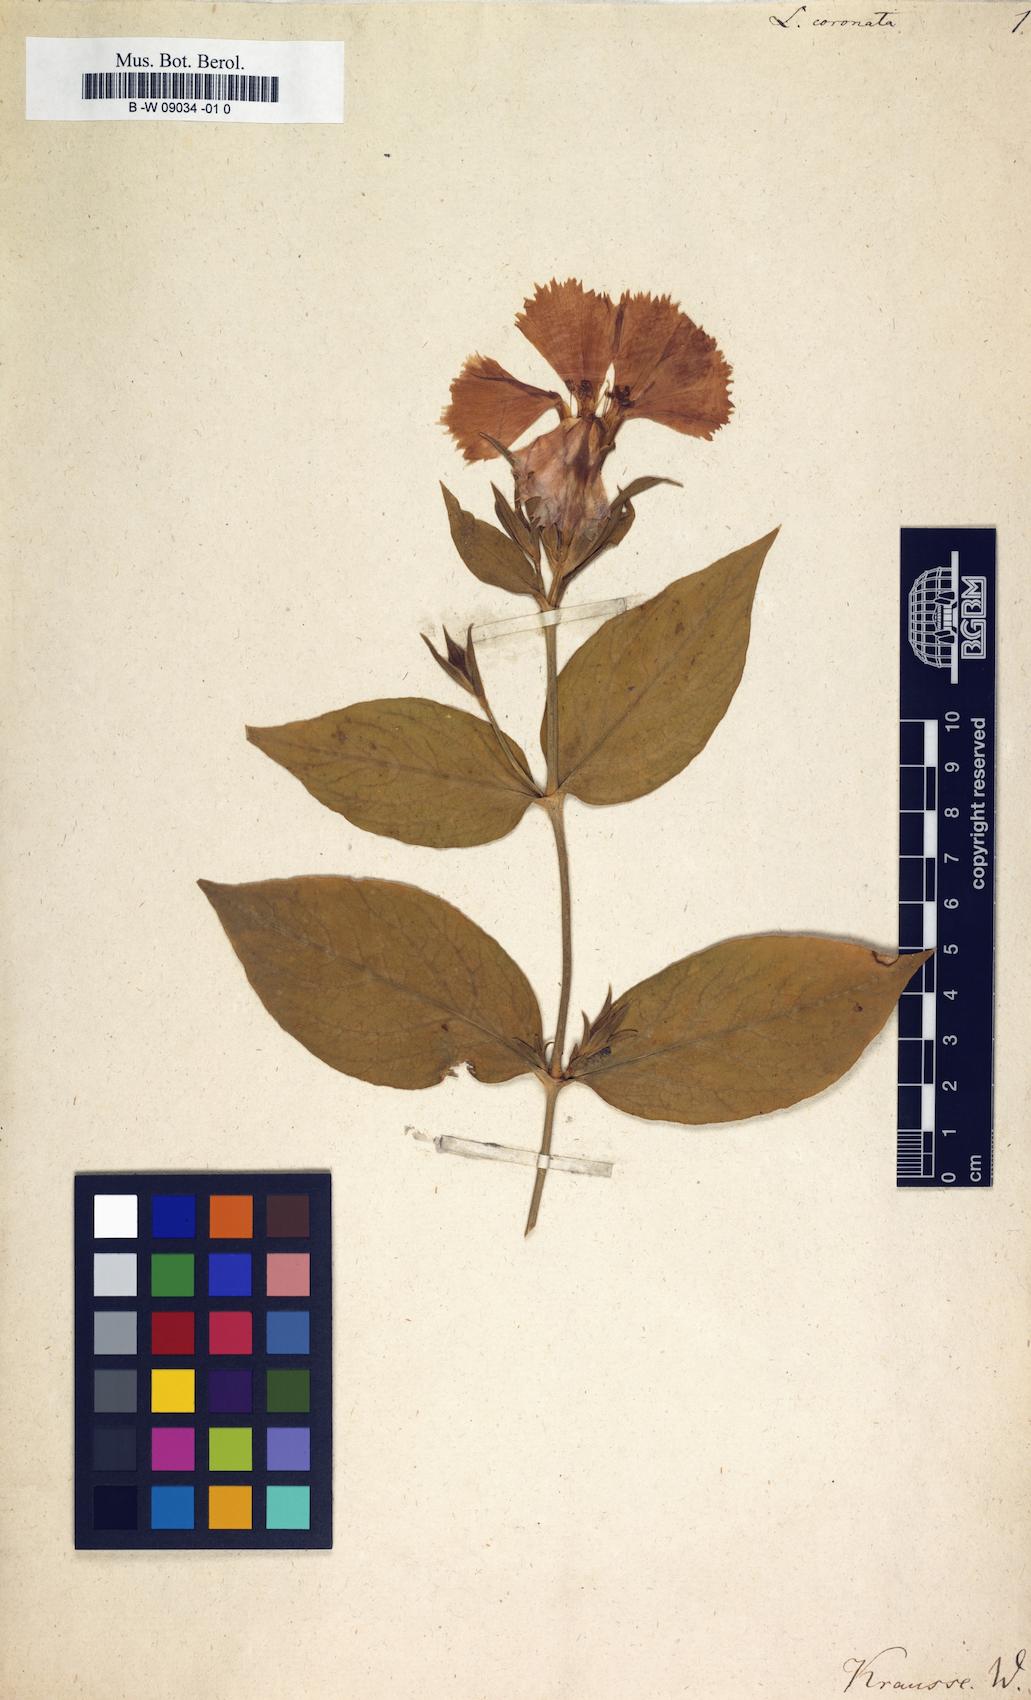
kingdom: Plantae
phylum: Tracheophyta
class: Magnoliopsida
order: Caryophyllales
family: Caryophyllaceae
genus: Silene
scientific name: Silene banksia
